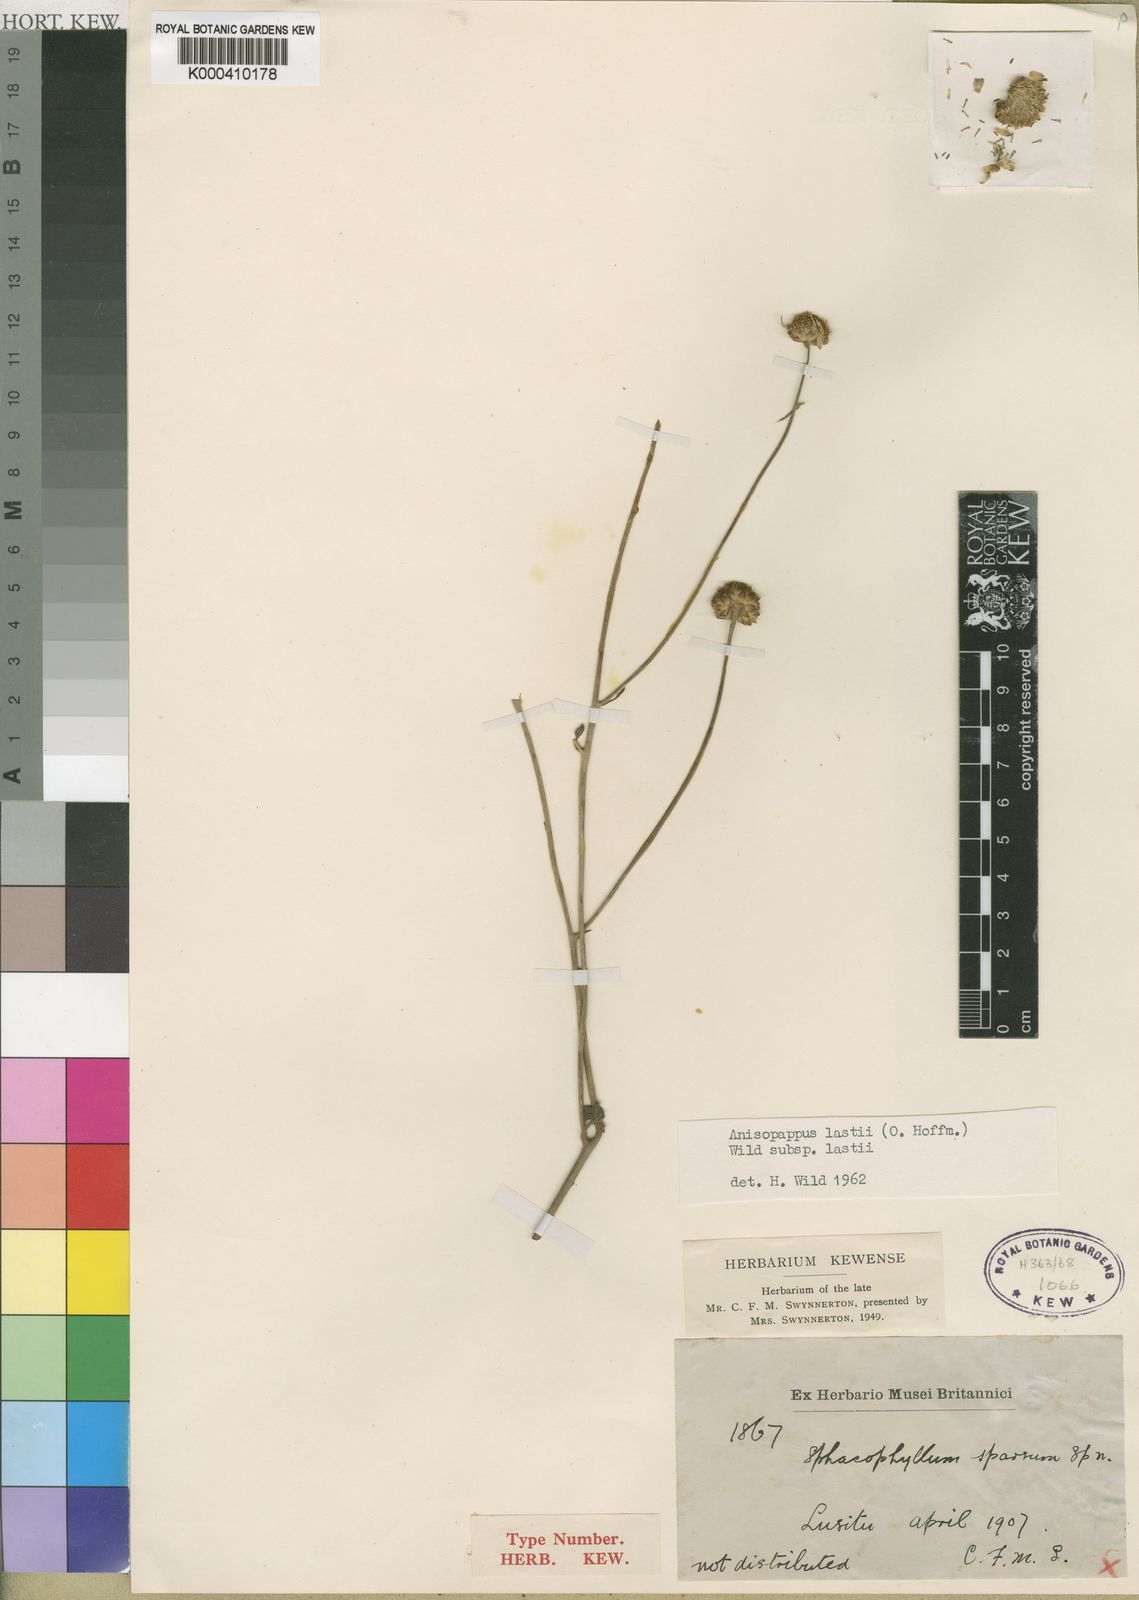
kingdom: Plantae
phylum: Tracheophyta
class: Magnoliopsida
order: Asterales
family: Asteraceae
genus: Anisopappus
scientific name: Anisopappus chinensis
